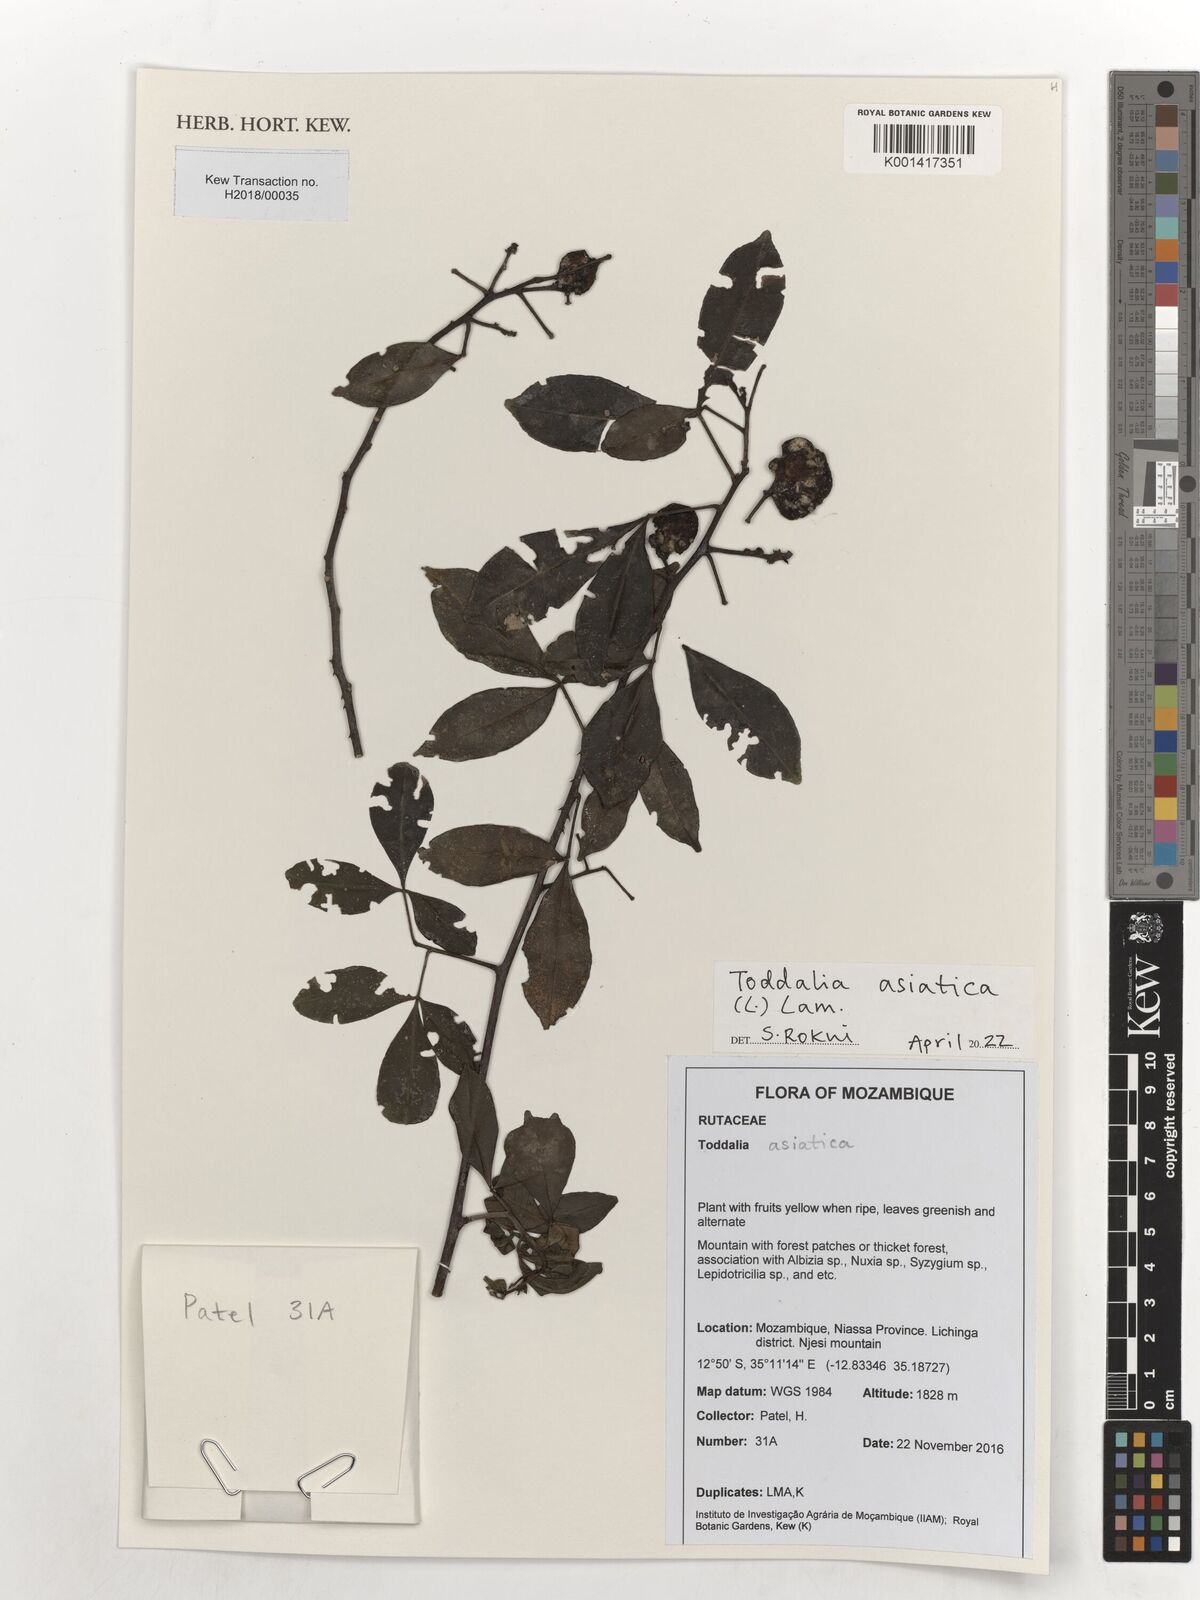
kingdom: Plantae
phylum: Tracheophyta
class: Magnoliopsida
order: Sapindales
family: Rutaceae
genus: Zanthoxylum
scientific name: Zanthoxylum asiaticum
